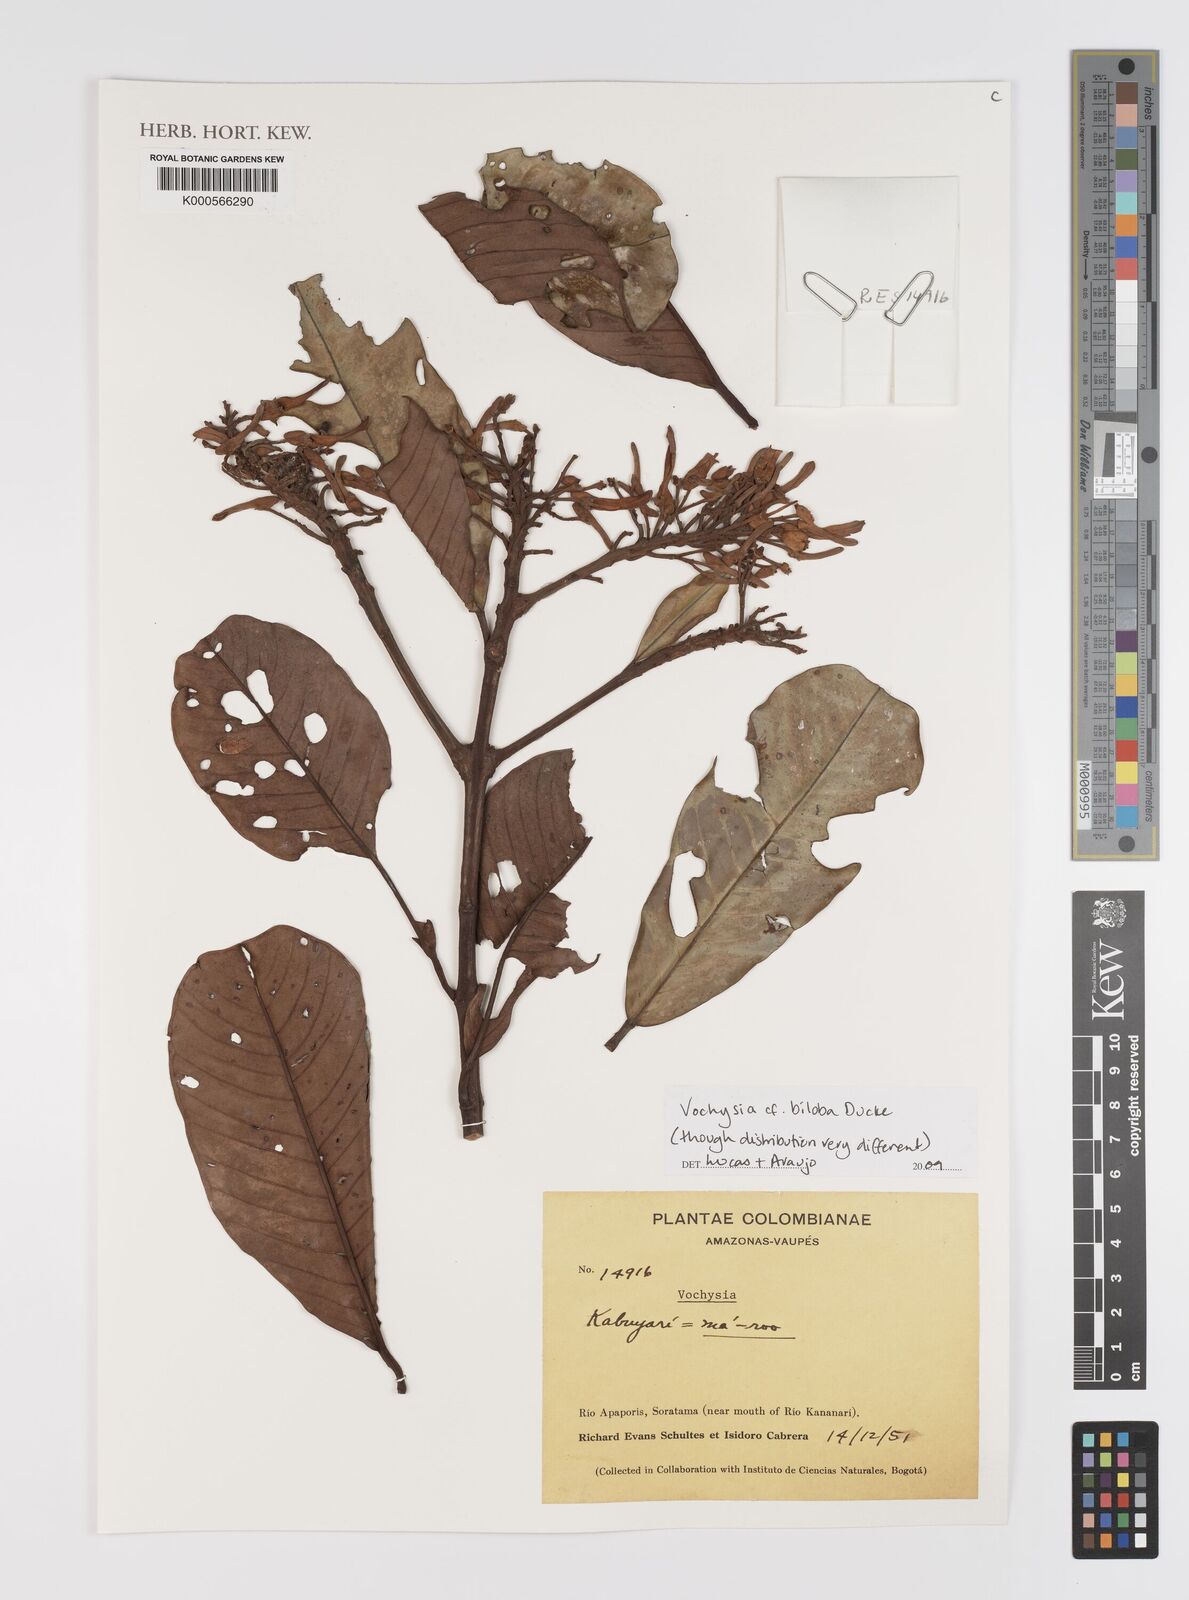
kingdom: Plantae
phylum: Tracheophyta
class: Magnoliopsida
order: Myrtales
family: Vochysiaceae
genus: Vochysia
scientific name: Vochysia biloba
